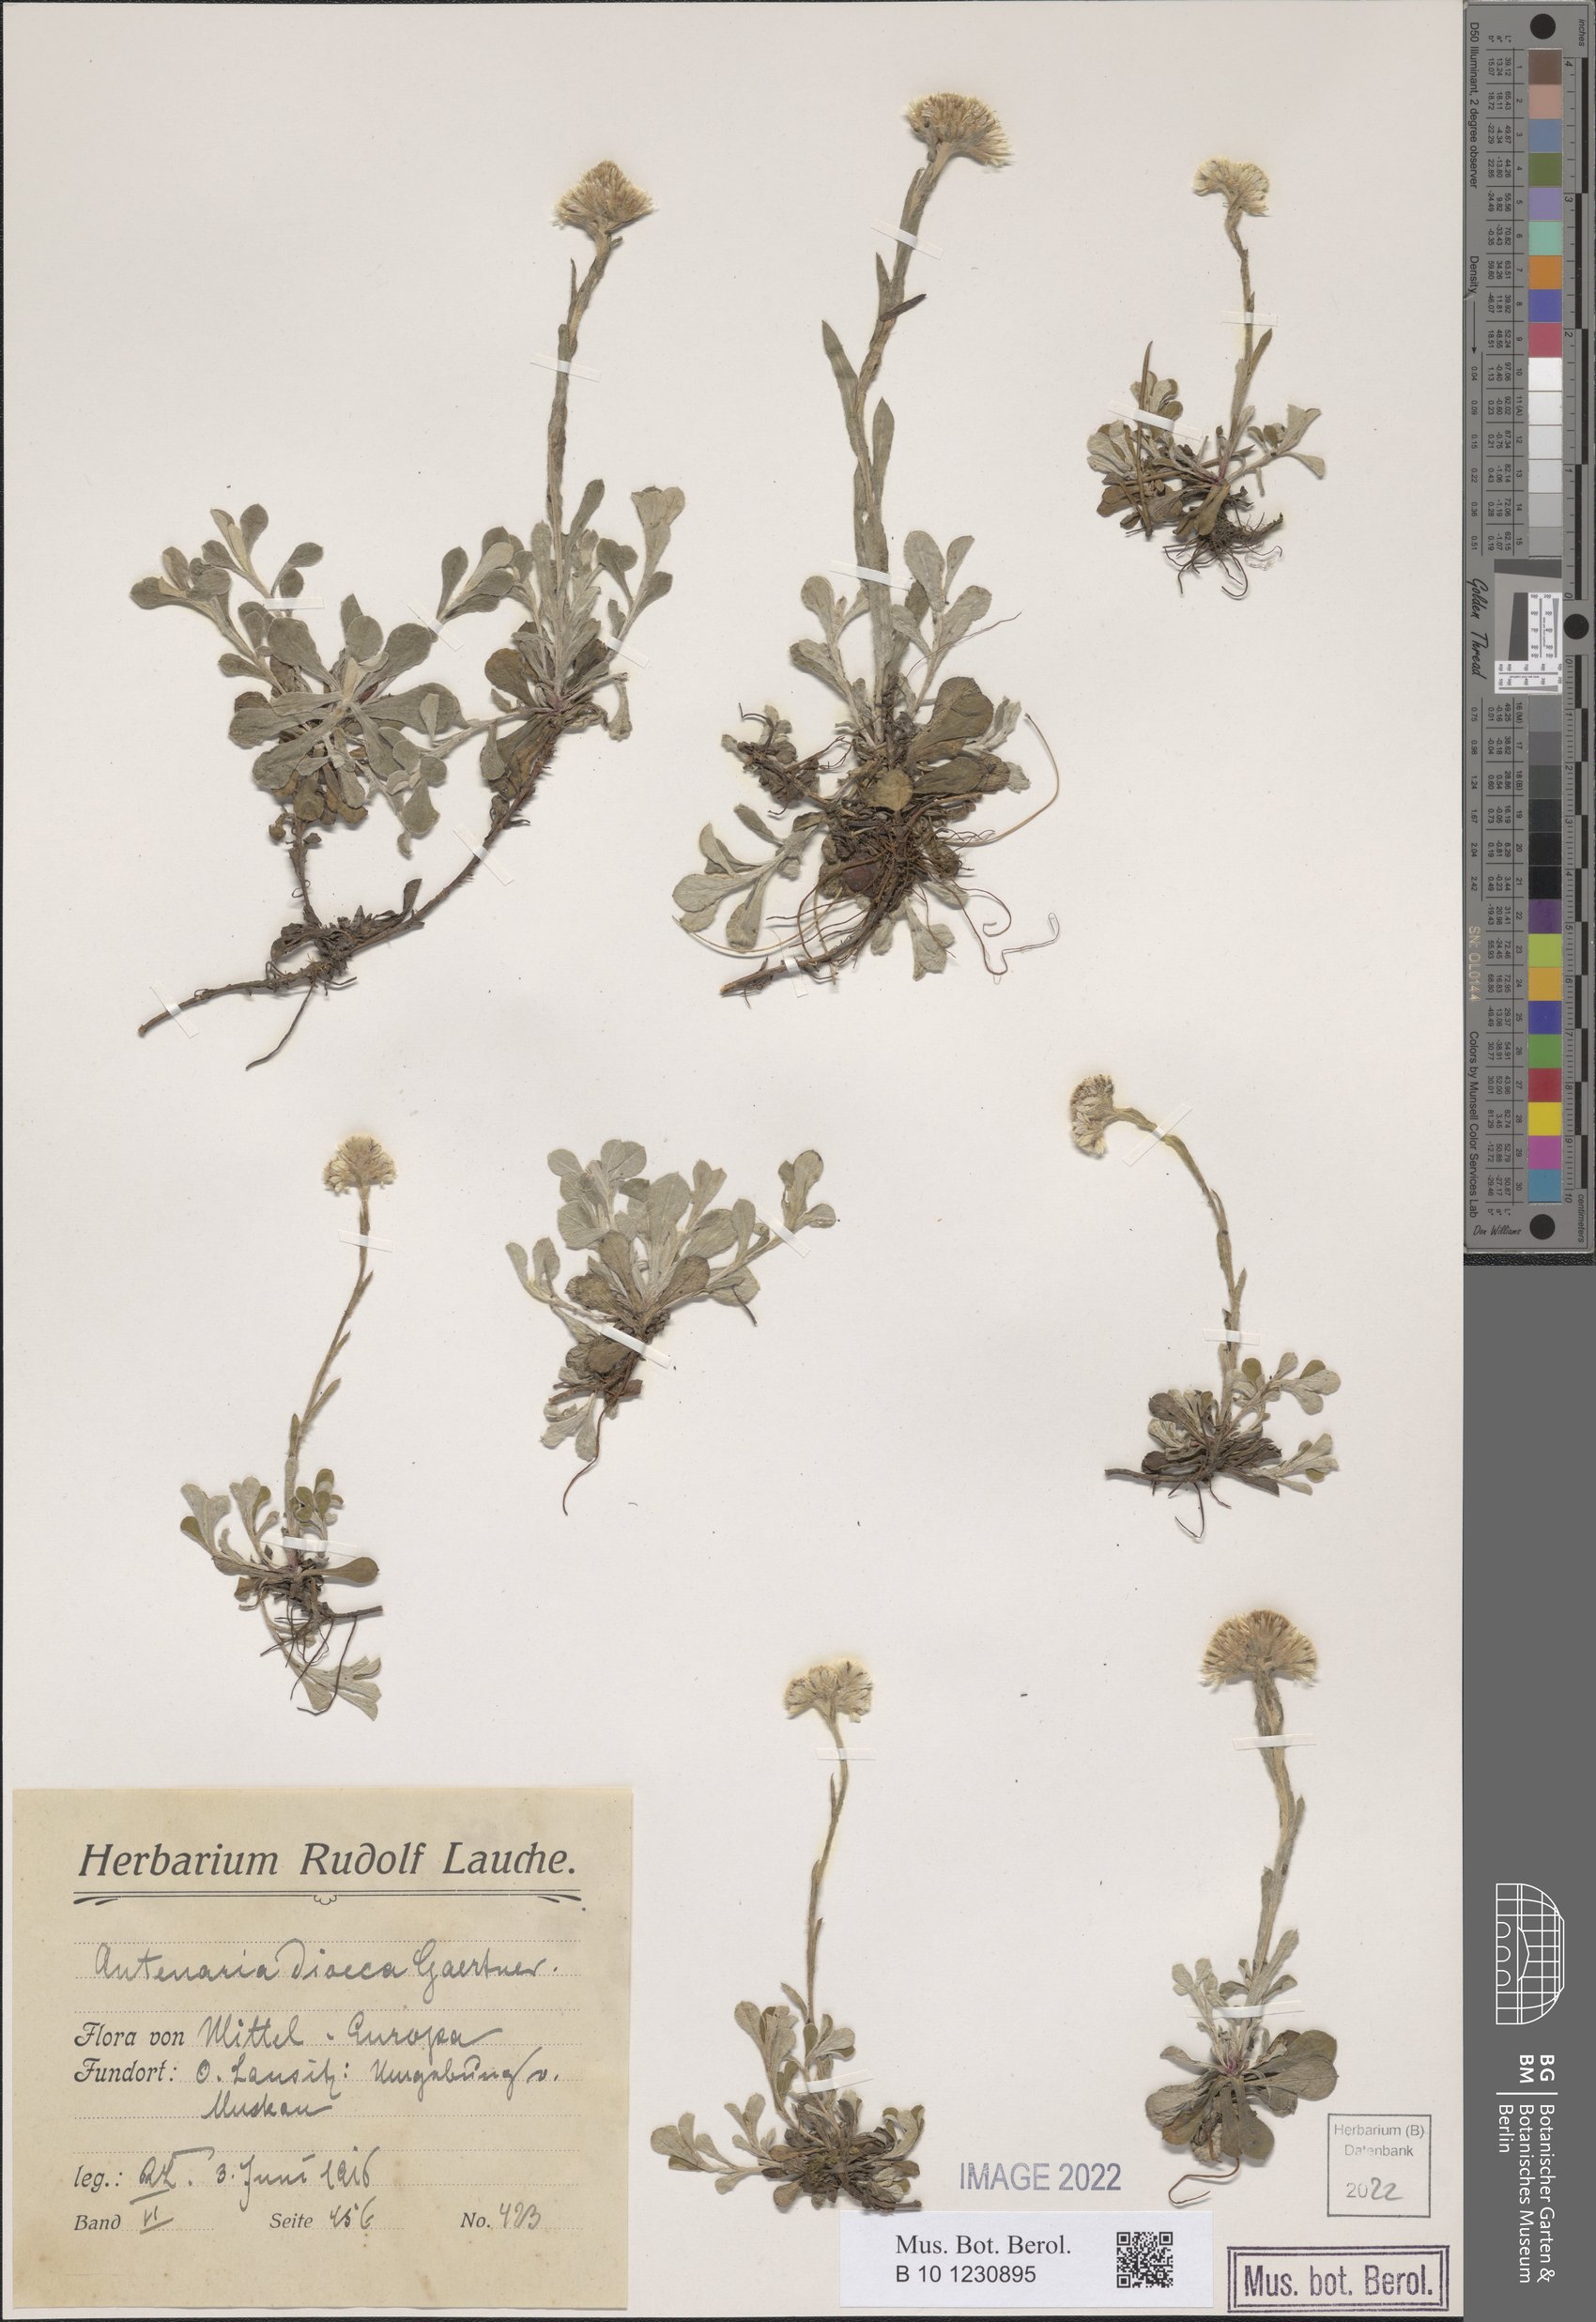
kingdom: Plantae
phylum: Tracheophyta
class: Magnoliopsida
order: Asterales
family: Asteraceae
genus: Antennaria
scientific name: Antennaria dioica
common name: Mountain everlasting
